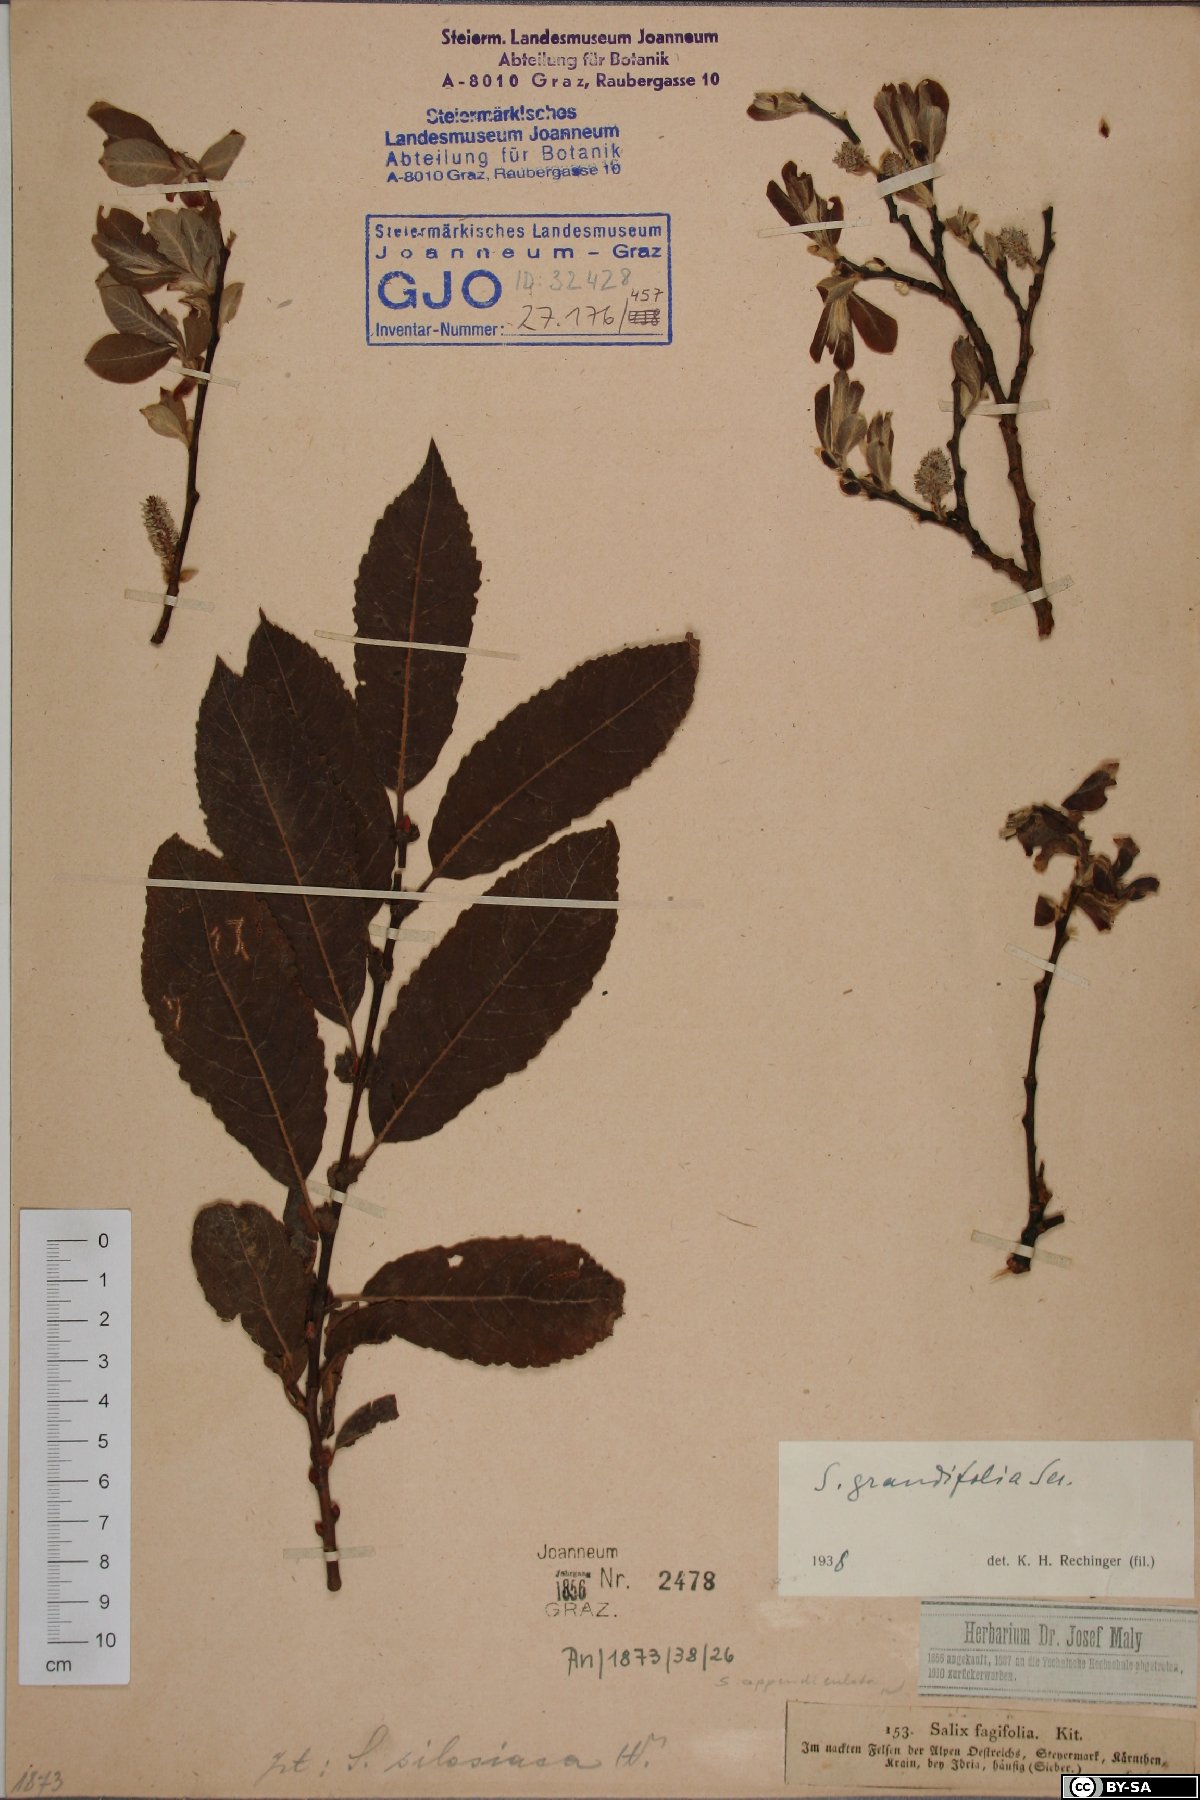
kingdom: Plantae
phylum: Tracheophyta
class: Magnoliopsida
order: Malpighiales
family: Salicaceae
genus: Salix
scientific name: Salix appendiculata
